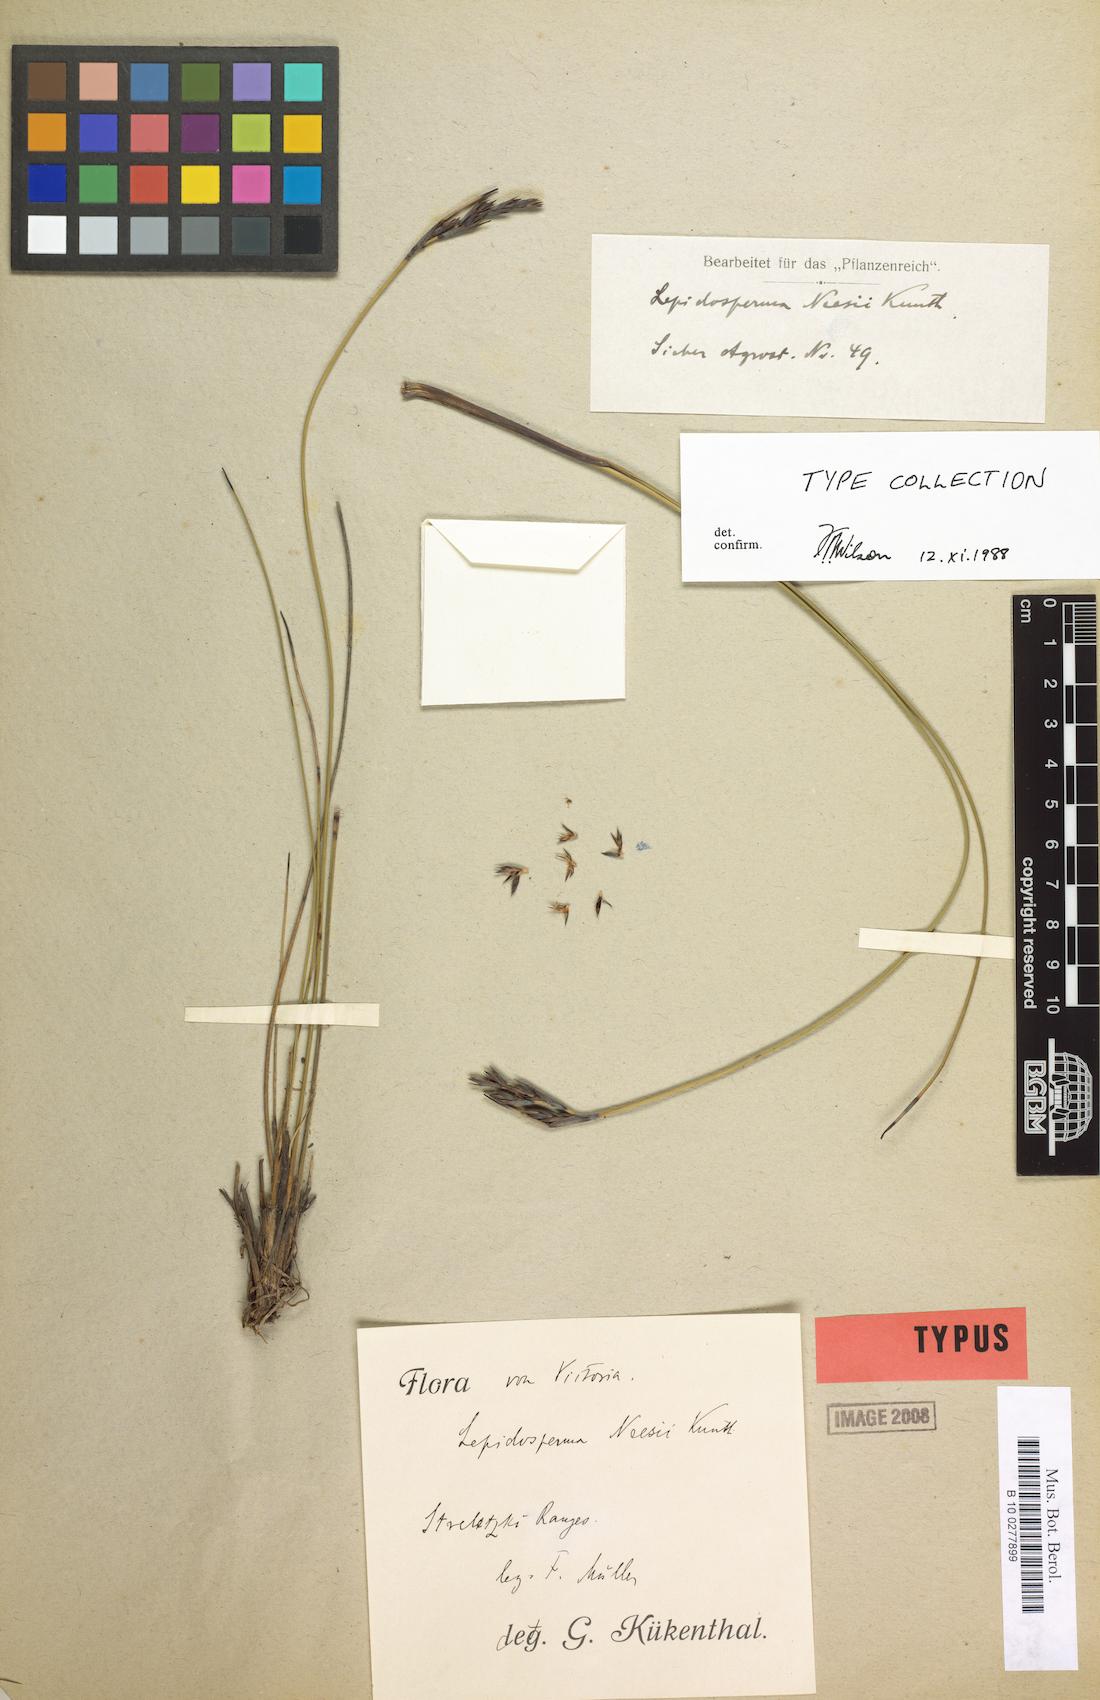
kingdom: Plantae
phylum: Tracheophyta
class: Liliopsida
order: Poales
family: Cyperaceae
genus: Lepidosperma
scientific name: Lepidosperma neesii
